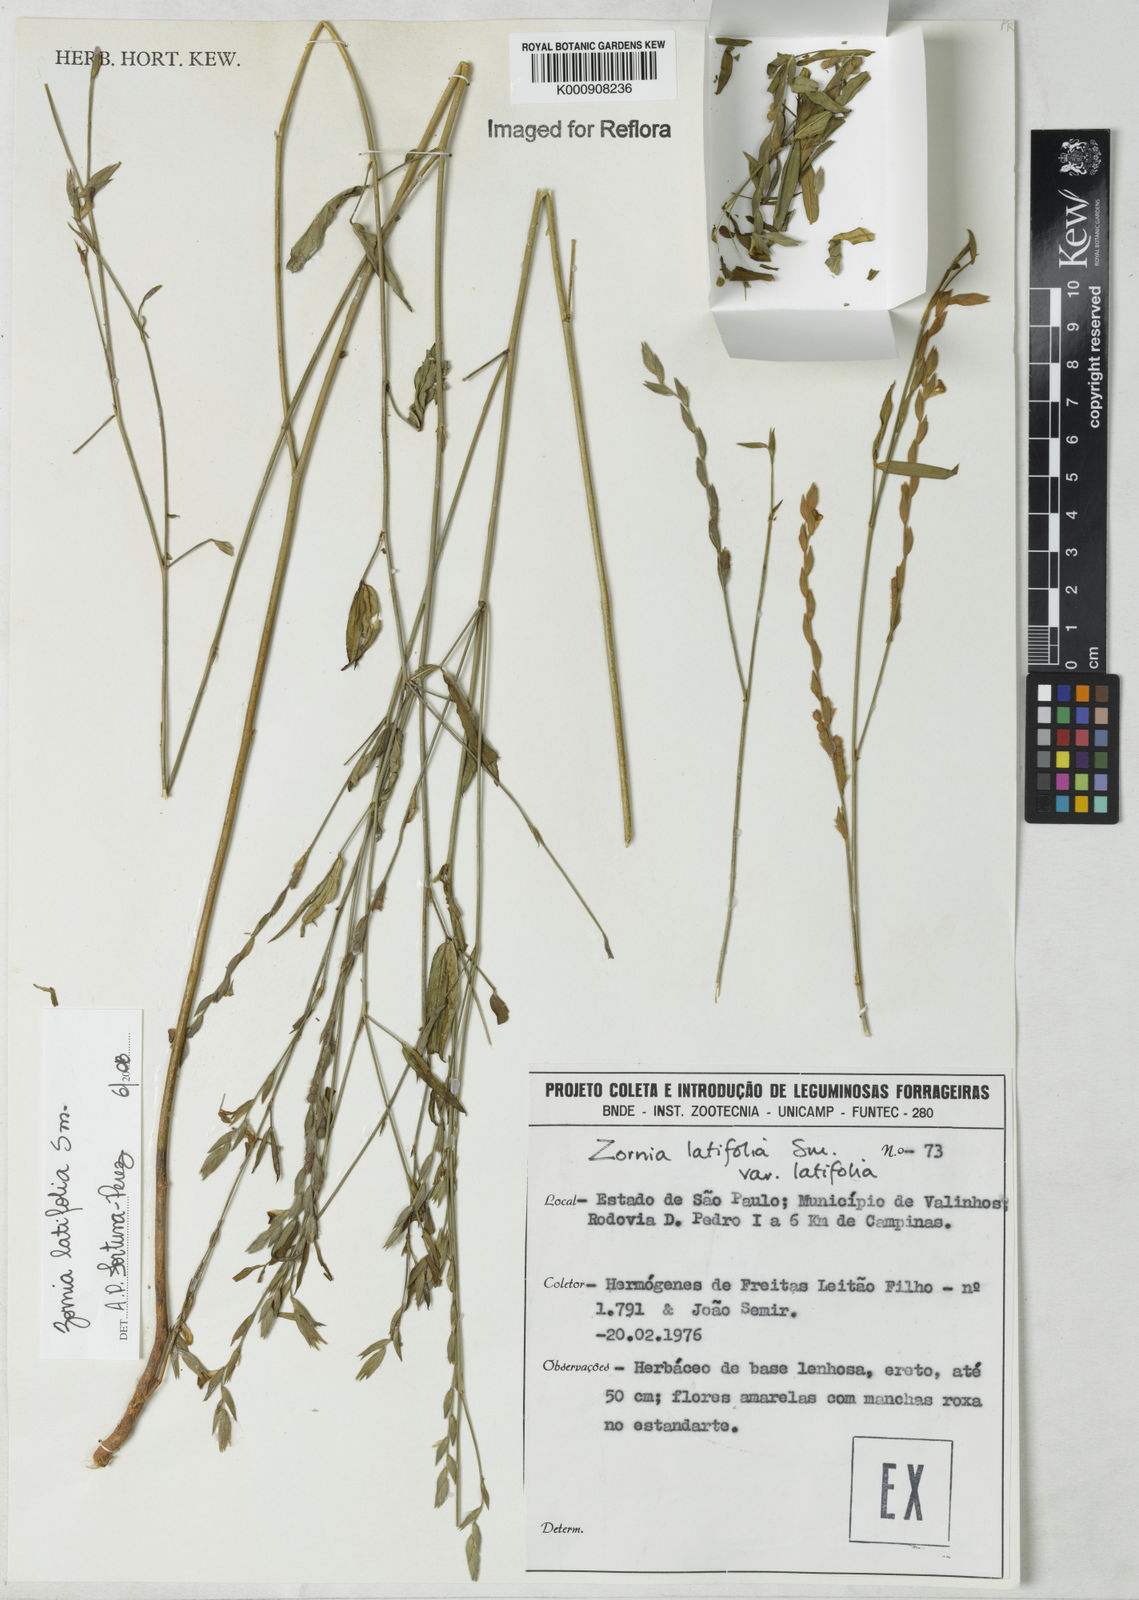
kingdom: Plantae
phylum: Tracheophyta
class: Magnoliopsida
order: Fabales
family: Fabaceae
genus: Zornia
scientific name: Zornia latifolia
